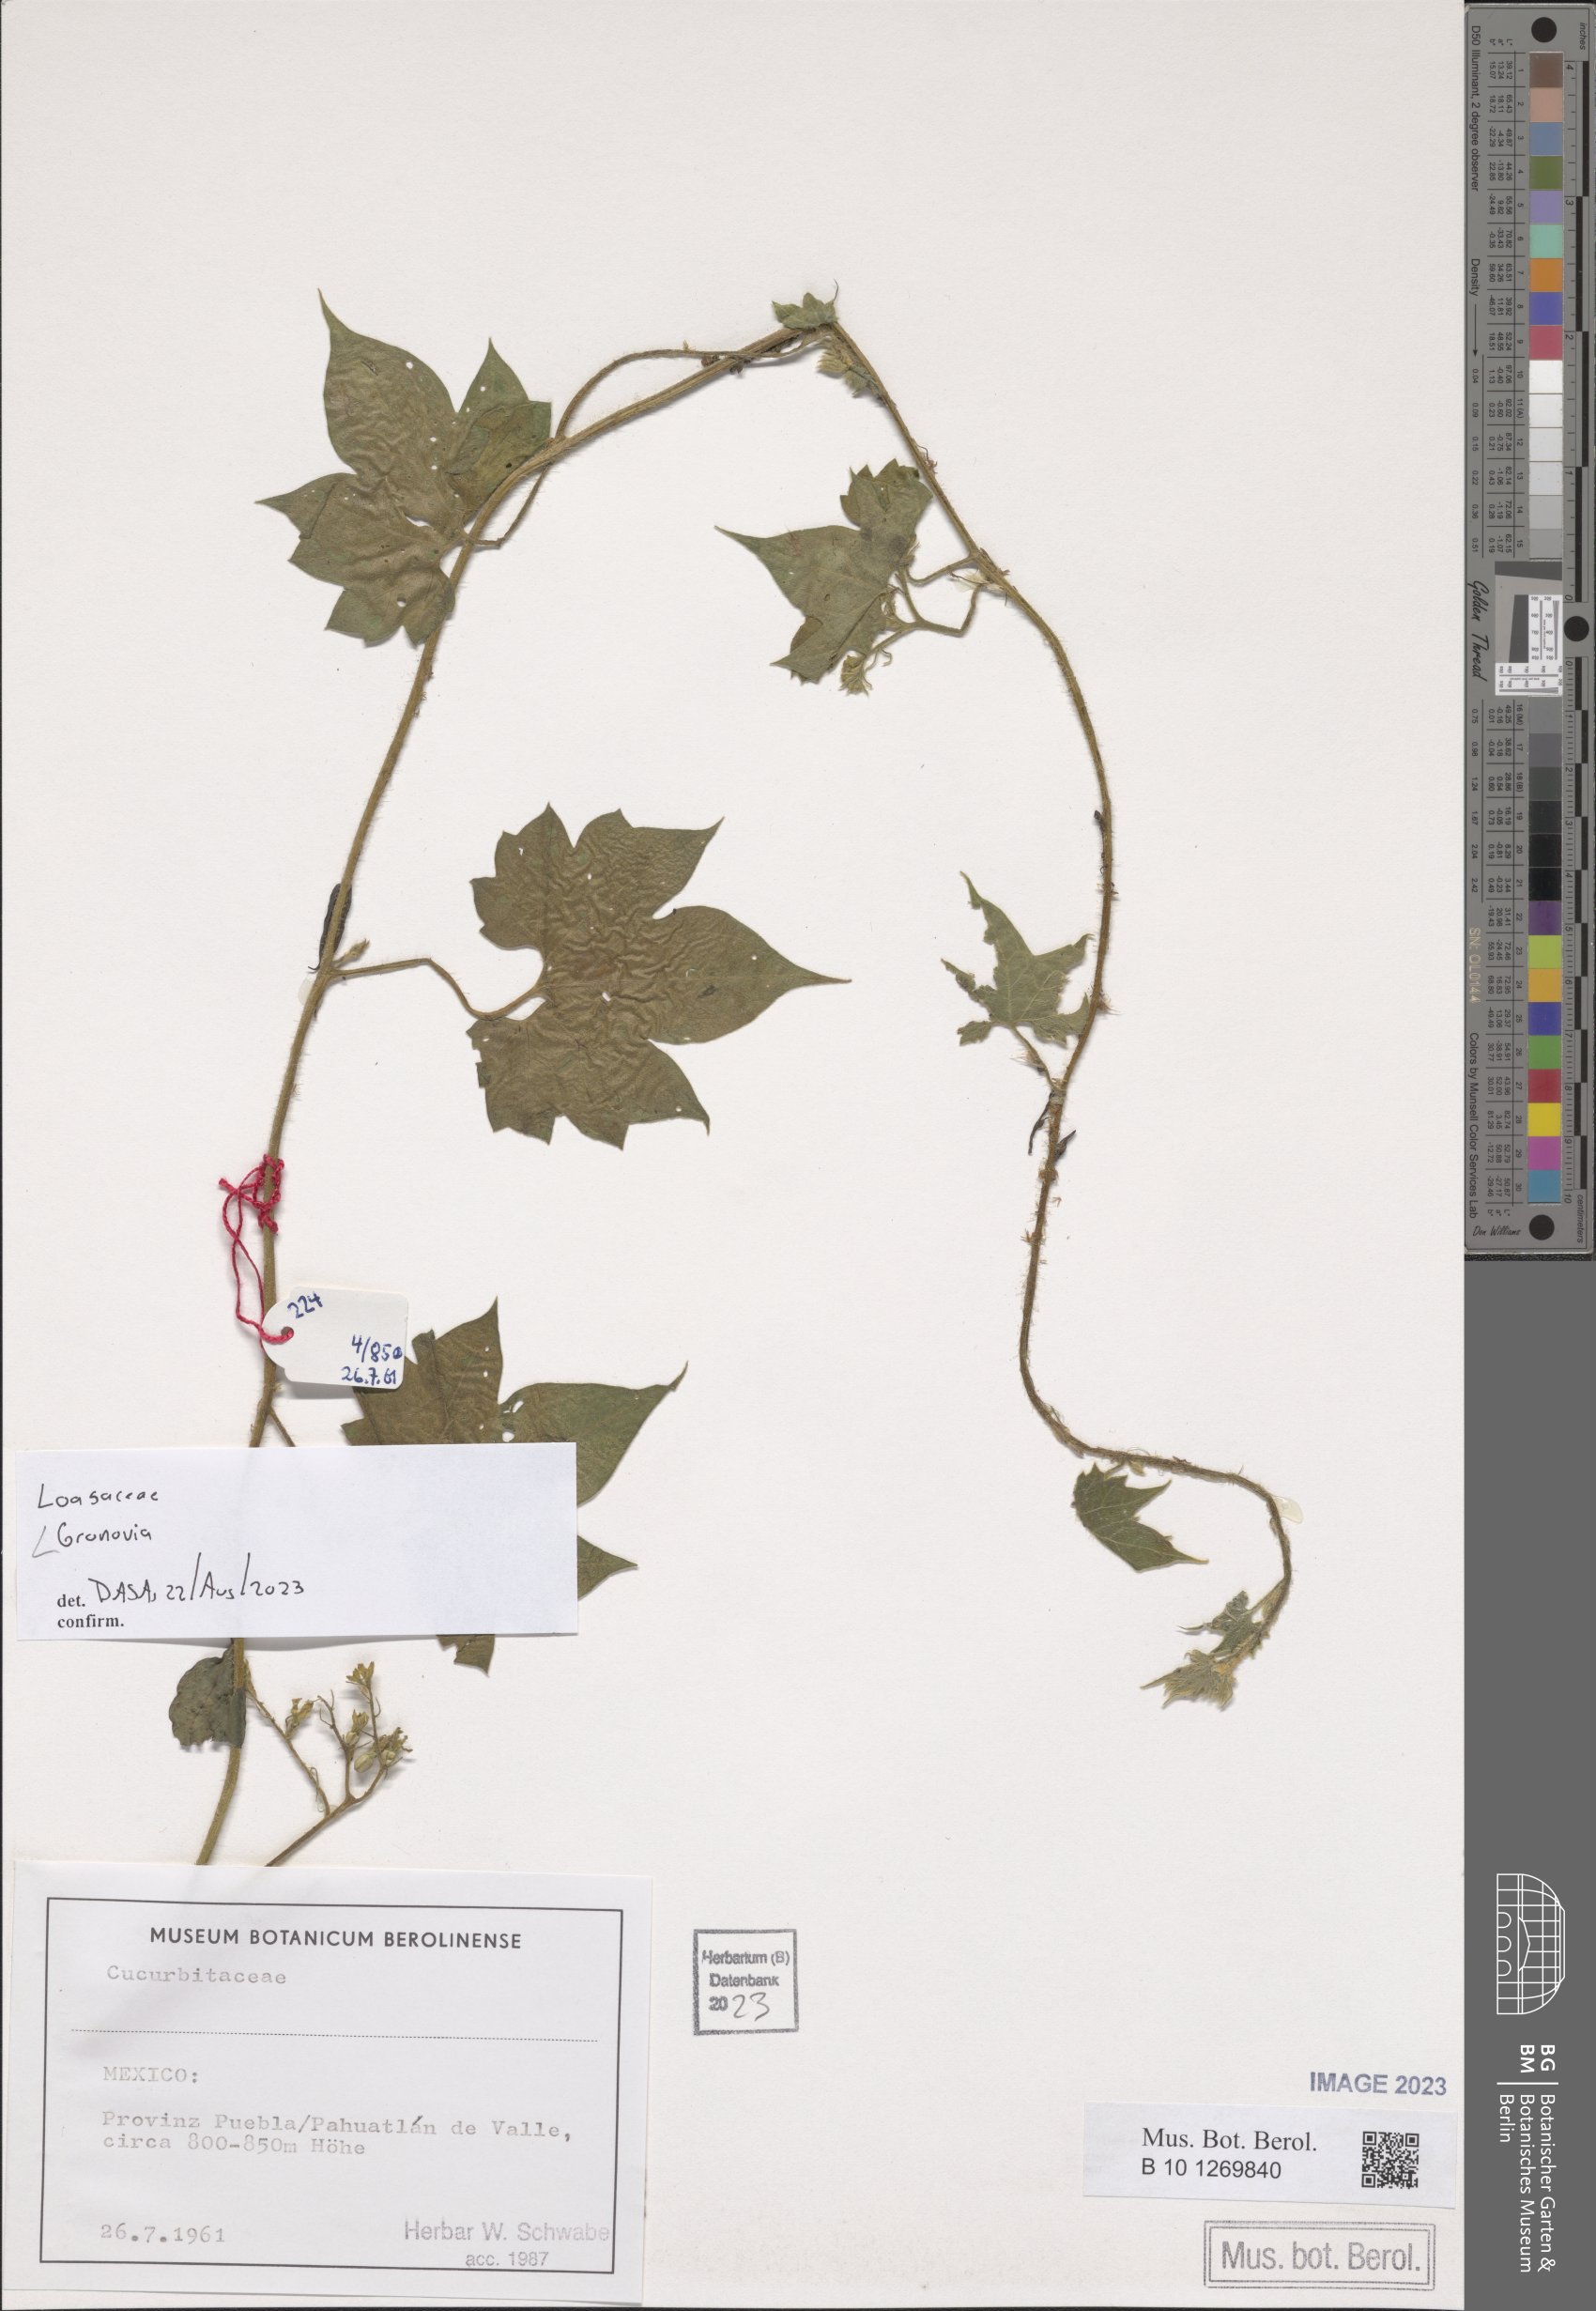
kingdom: Plantae
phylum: Tracheophyta
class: Magnoliopsida
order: Cornales
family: Loasaceae
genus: Gronovia
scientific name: Gronovia
